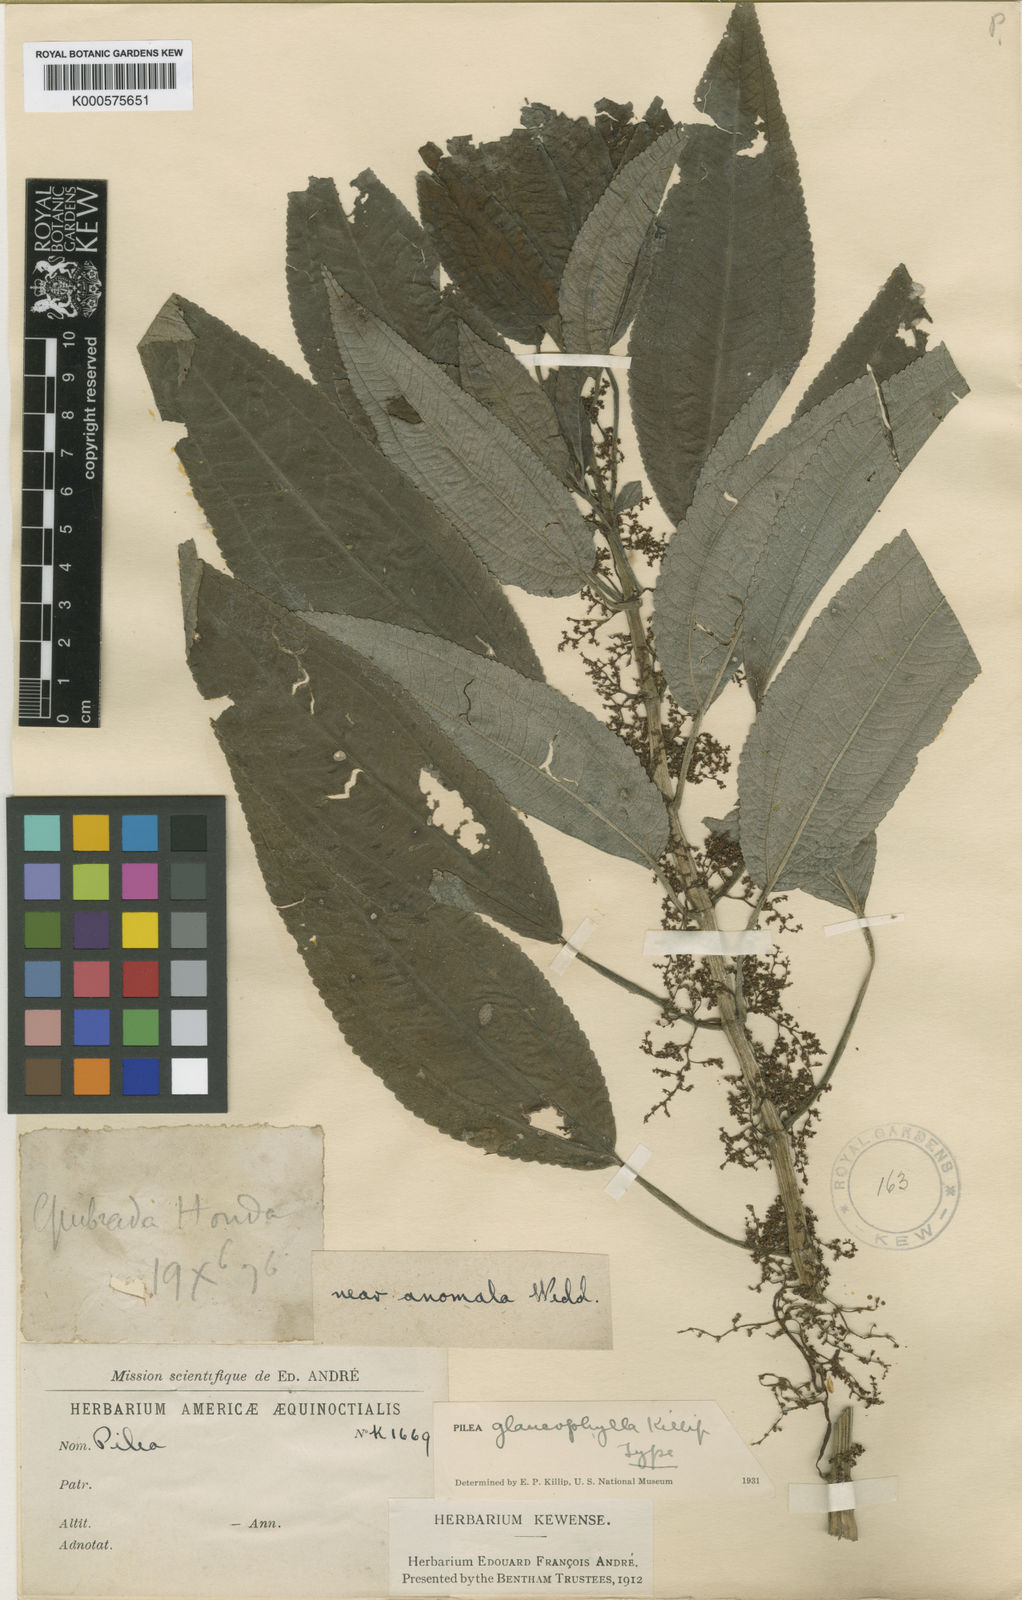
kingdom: Plantae
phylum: Tracheophyta
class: Magnoliopsida
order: Rosales
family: Urticaceae
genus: Pilea
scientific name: Pilea multiflora
